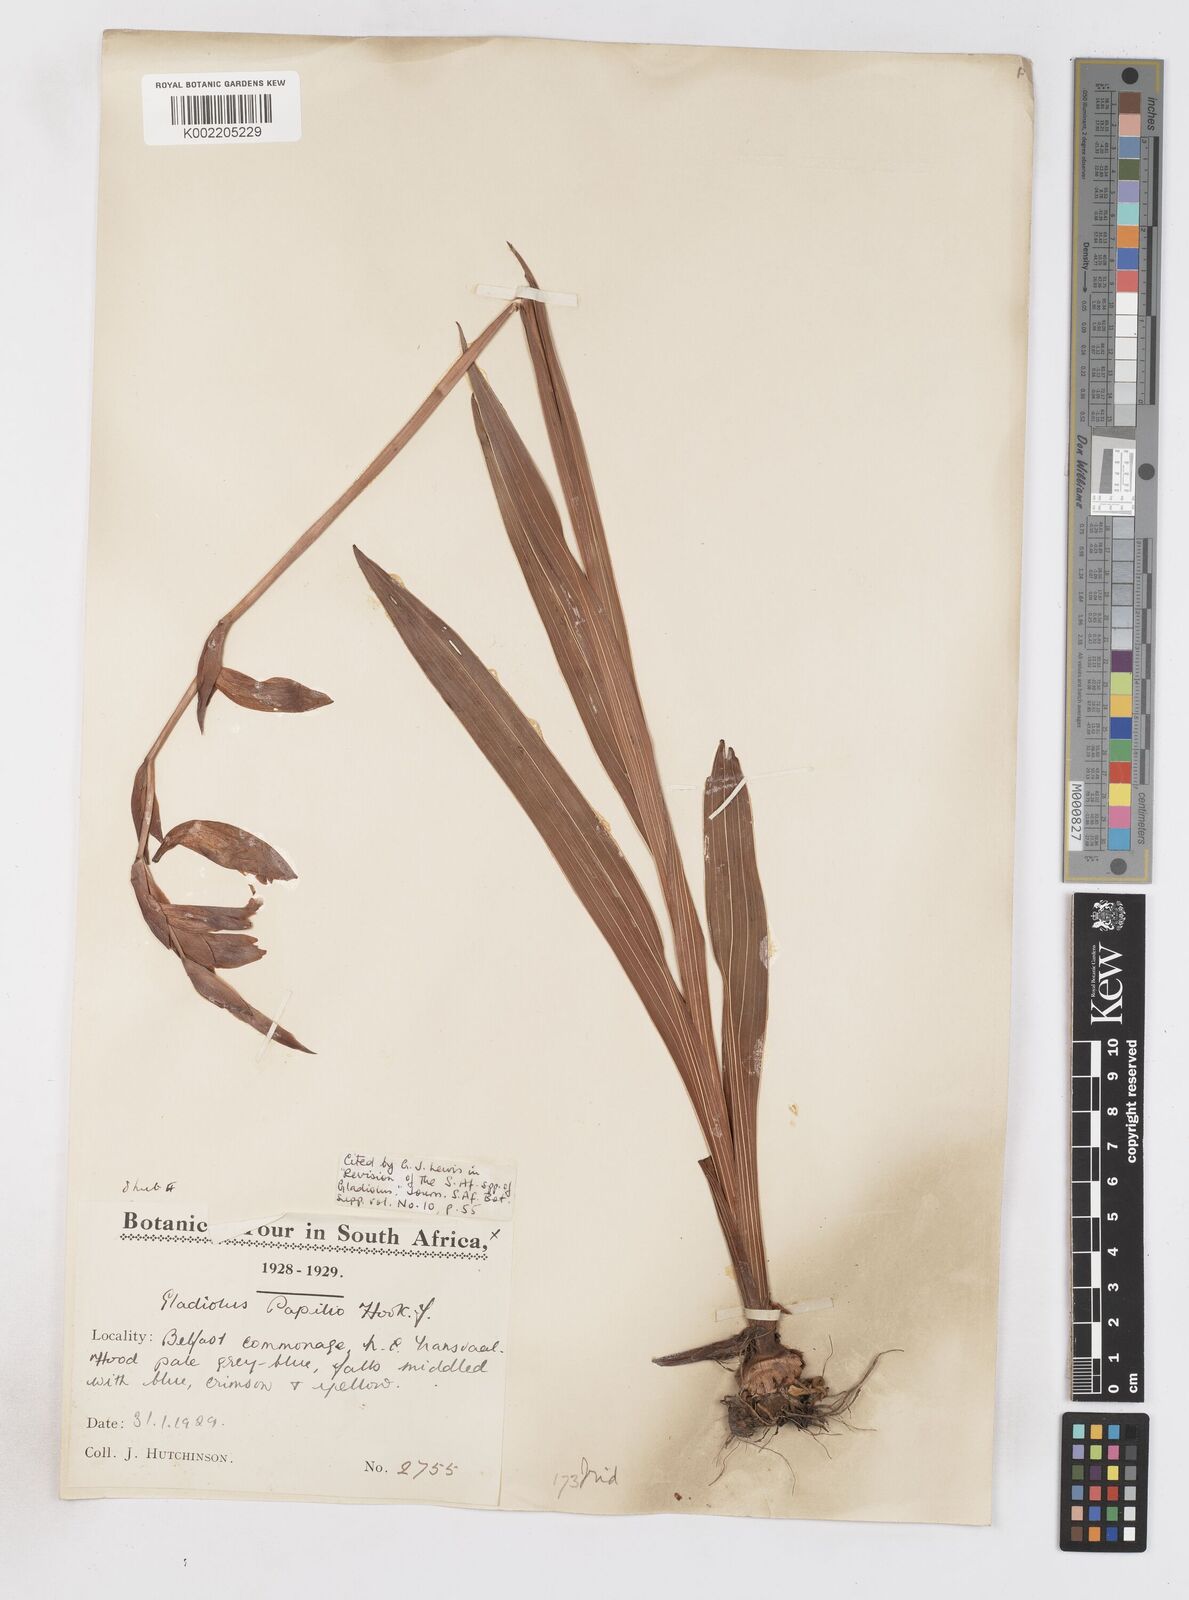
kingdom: Plantae
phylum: Tracheophyta
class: Liliopsida
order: Asparagales
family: Iridaceae
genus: Gladiolus
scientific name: Gladiolus papilio
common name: Goldblotch gladiolus
